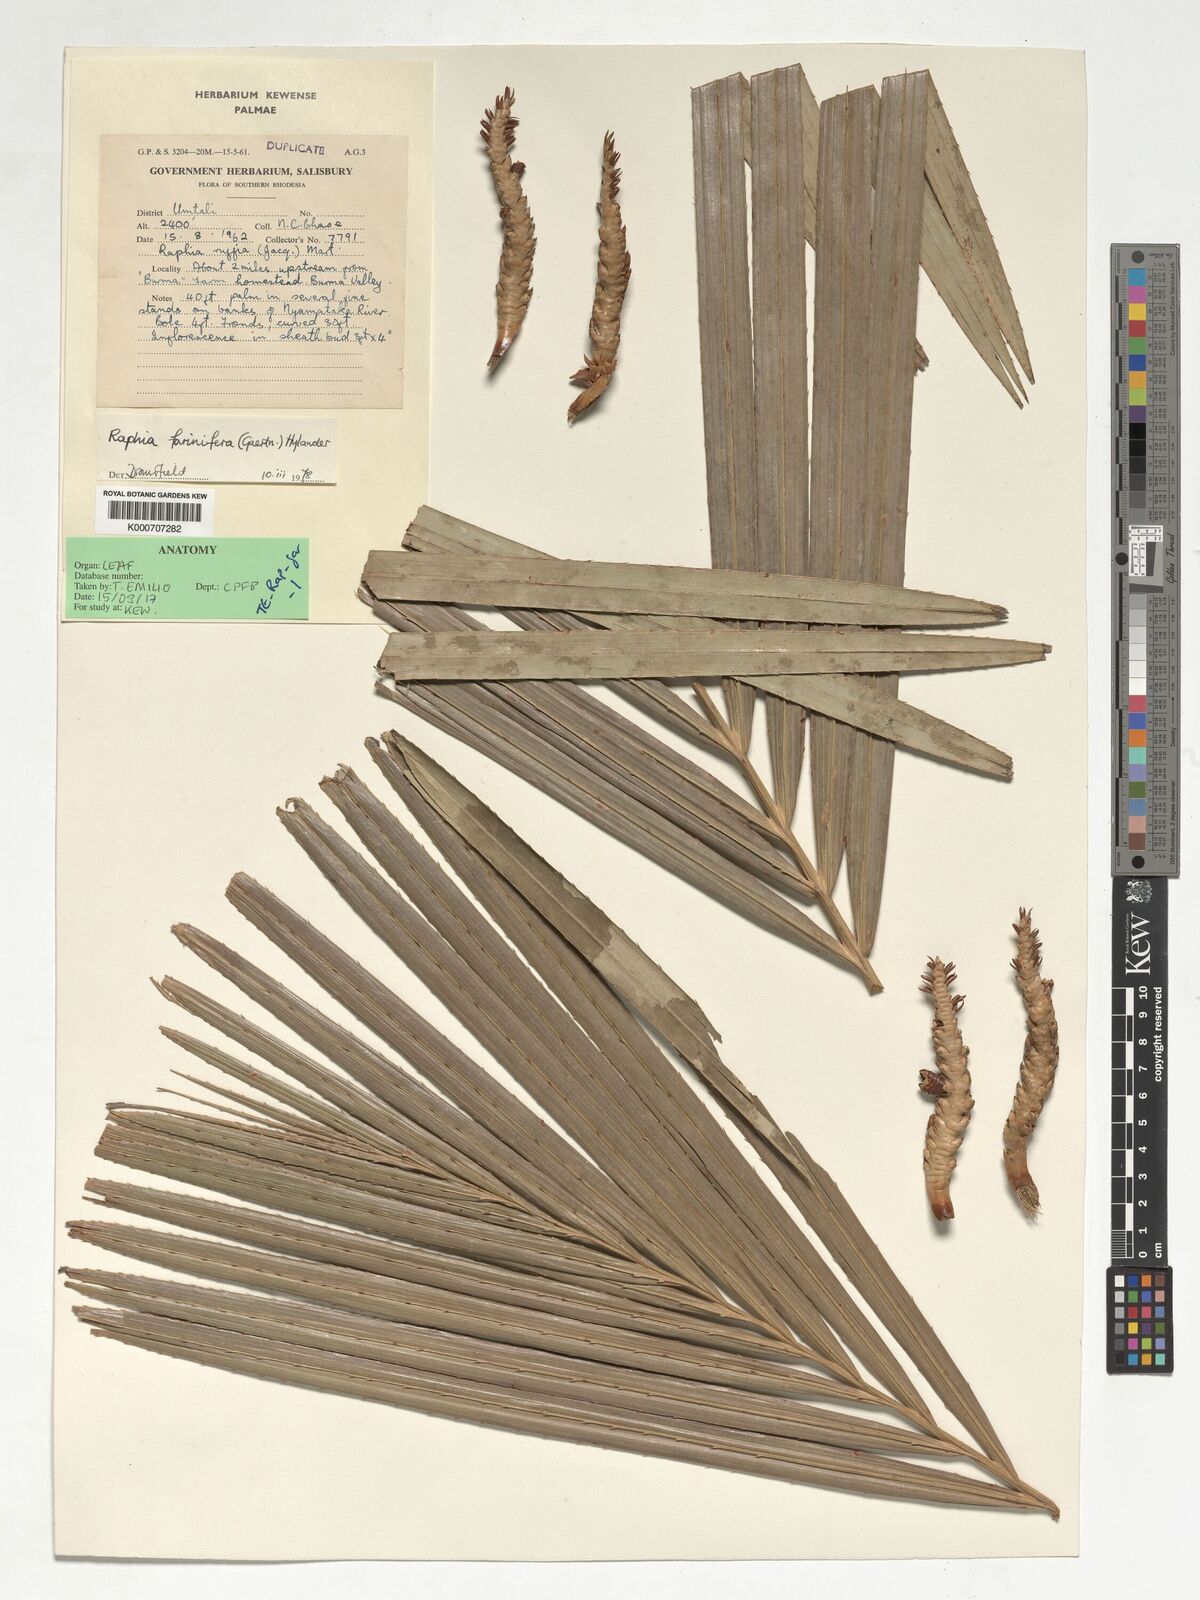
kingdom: Plantae
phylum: Tracheophyta
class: Liliopsida
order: Arecales
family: Arecaceae
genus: Raphia
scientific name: Raphia farinifera
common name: Raphia palm
